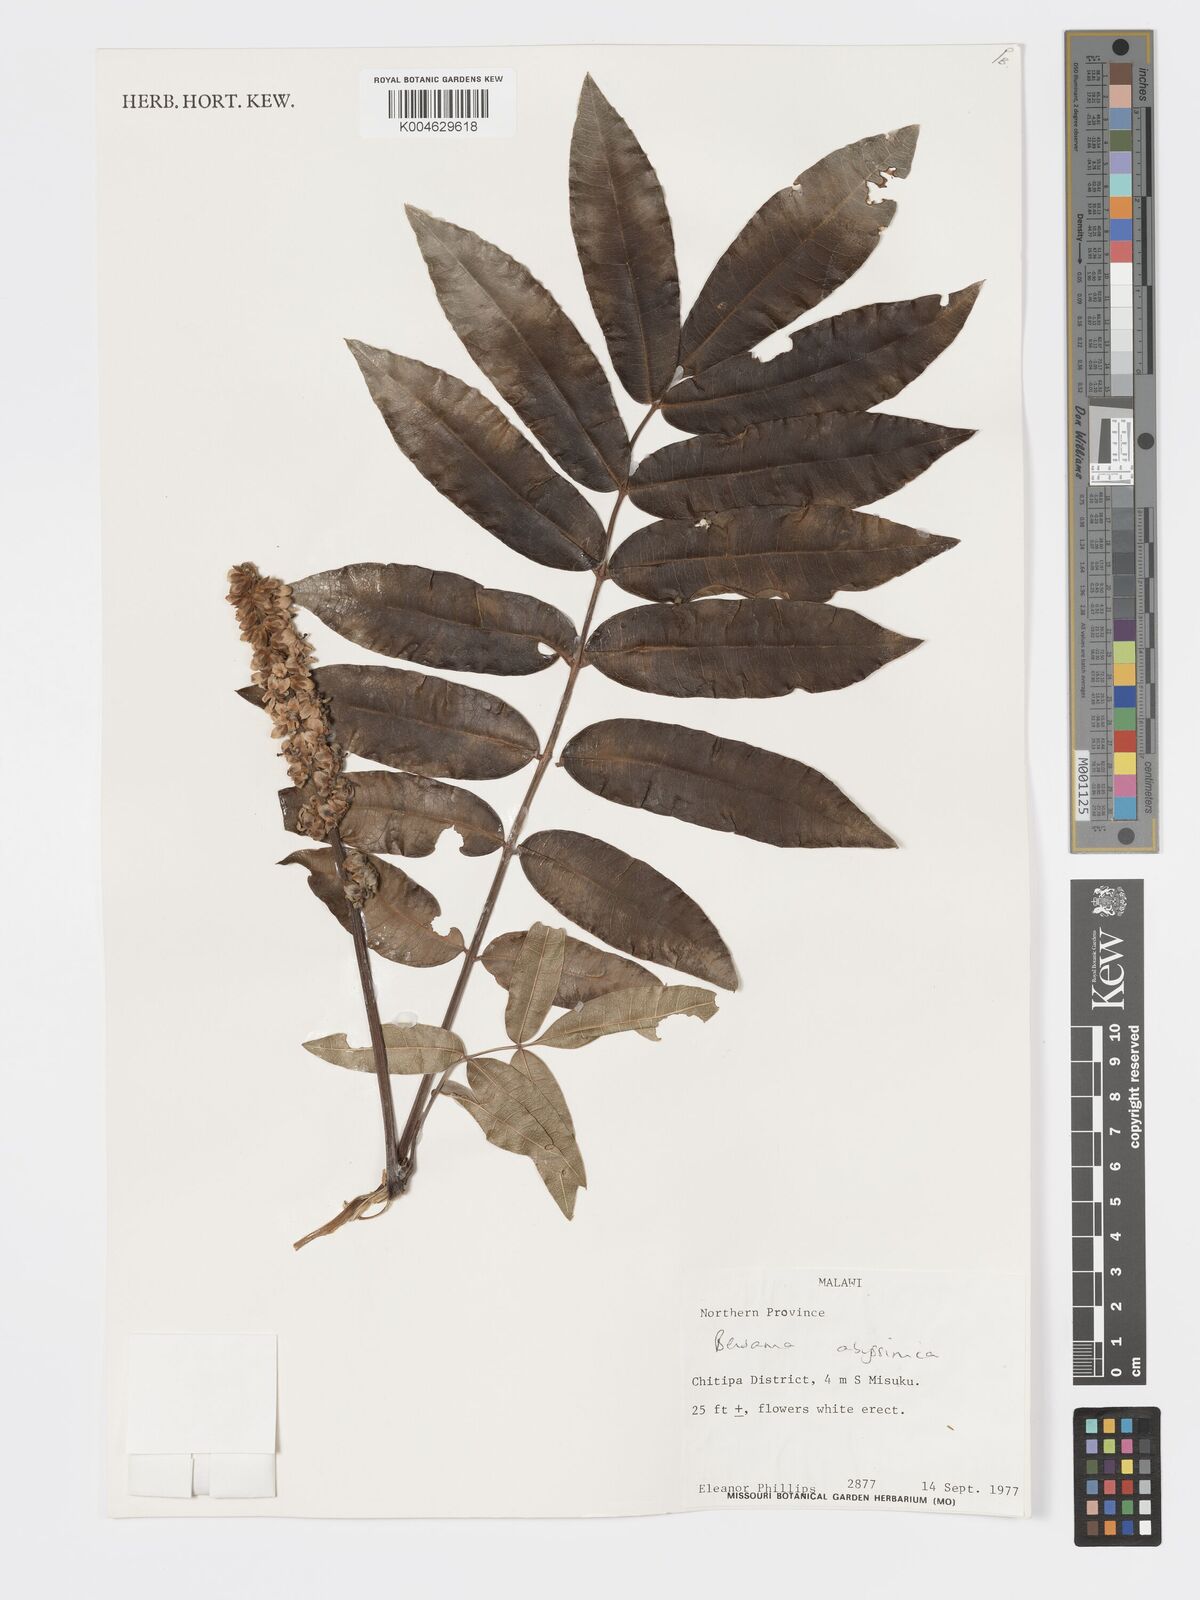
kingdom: Plantae
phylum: Tracheophyta
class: Magnoliopsida
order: Geraniales
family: Melianthaceae
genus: Bersama
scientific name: Bersama abyssinica
